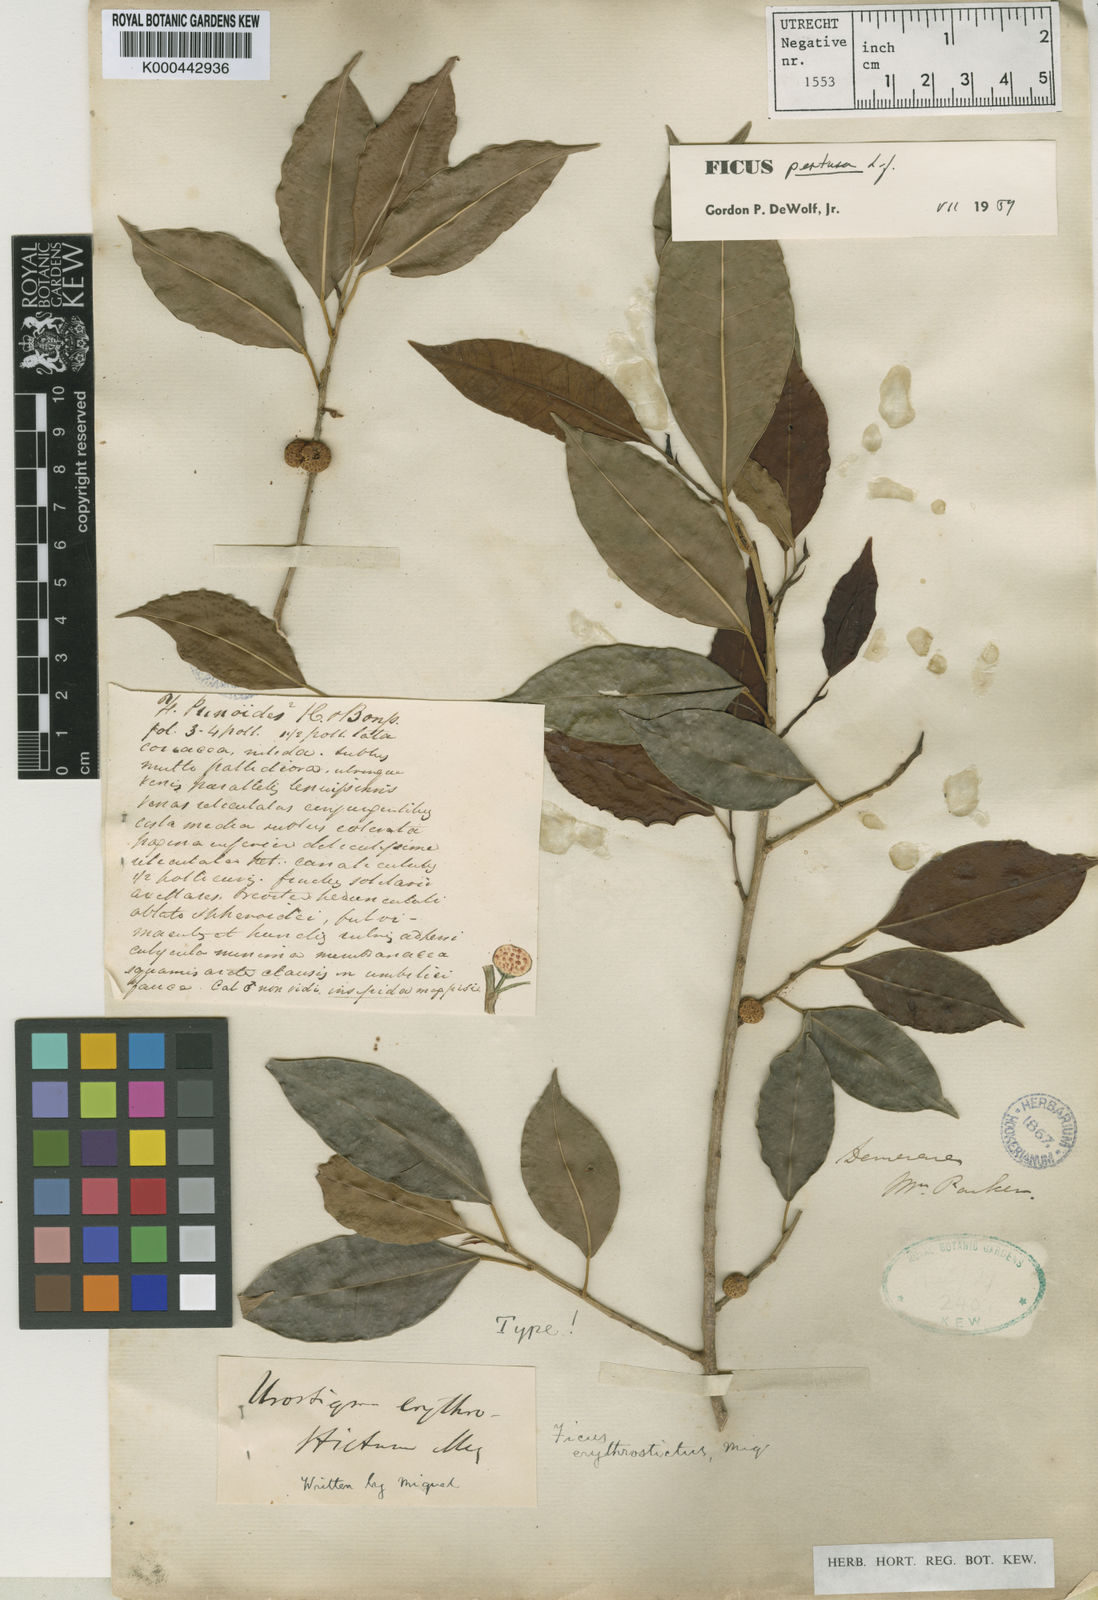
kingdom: Plantae
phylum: Tracheophyta
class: Magnoliopsida
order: Rosales
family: Moraceae
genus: Ficus
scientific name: Ficus pertusa
